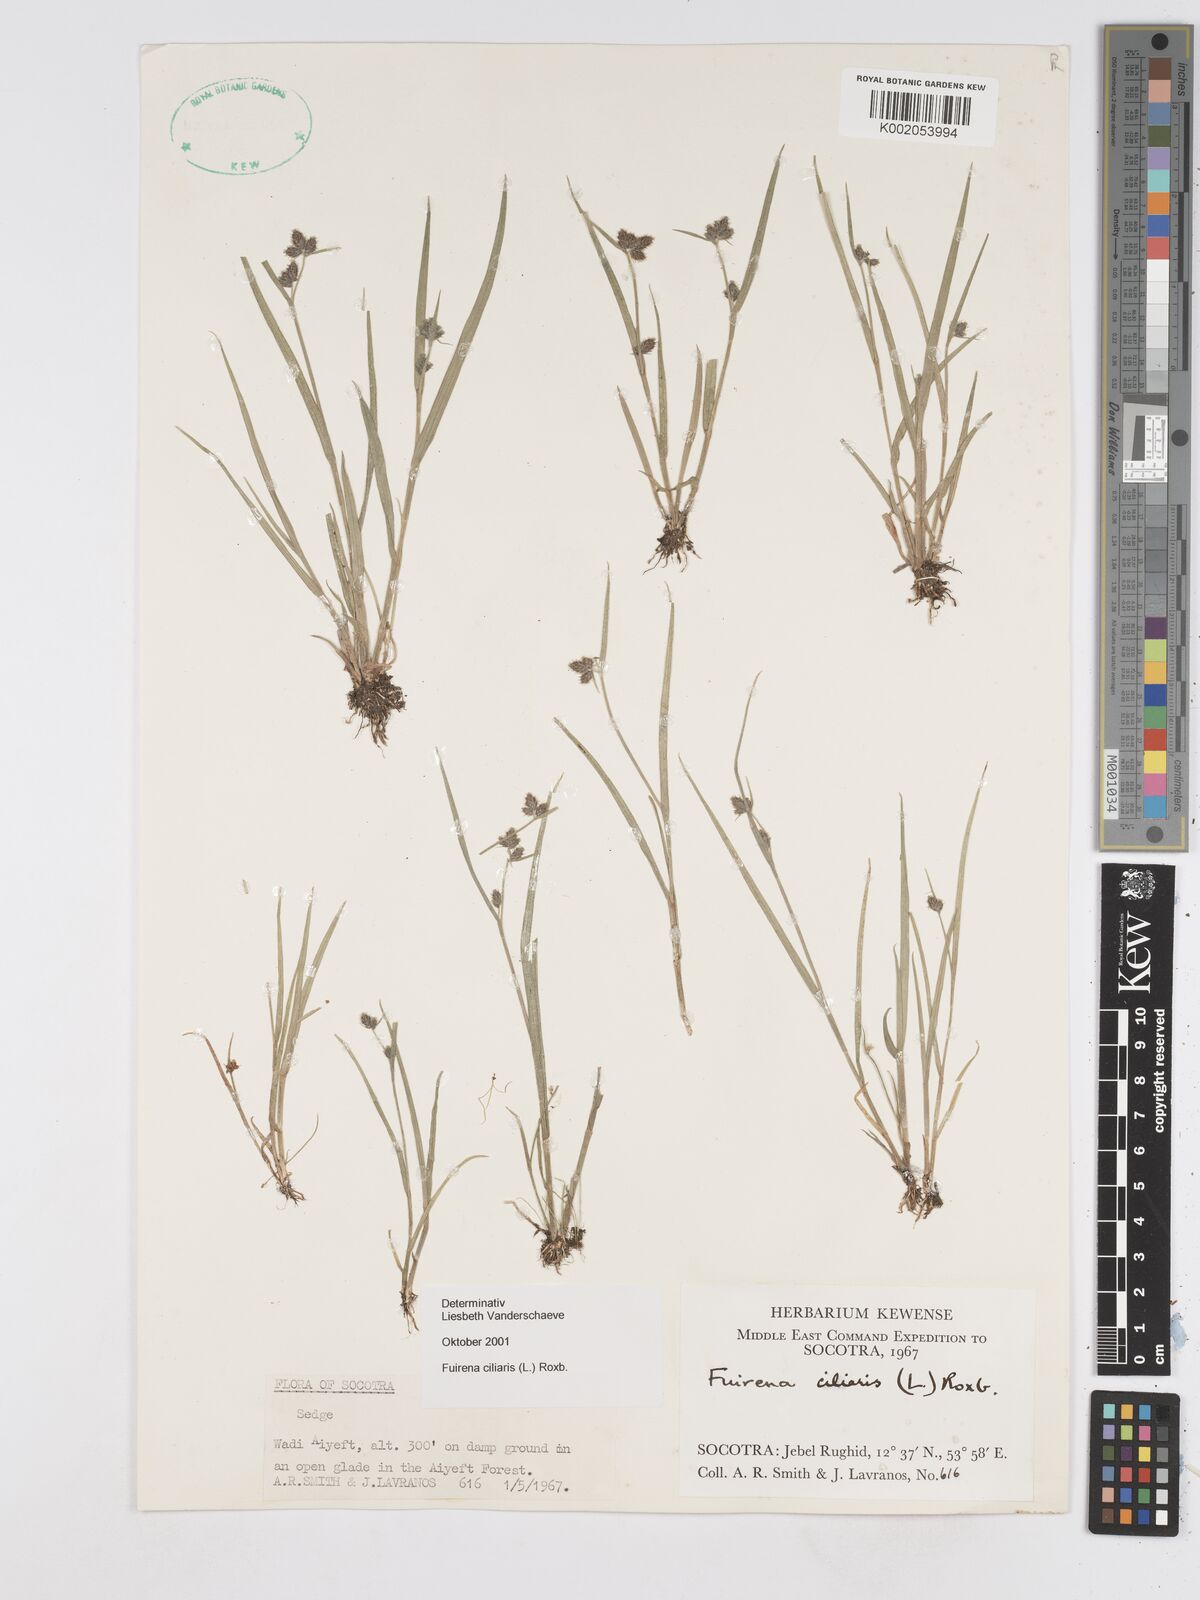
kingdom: Plantae
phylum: Tracheophyta
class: Liliopsida
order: Poales
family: Cyperaceae
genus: Fuirena
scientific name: Fuirena ciliaris
